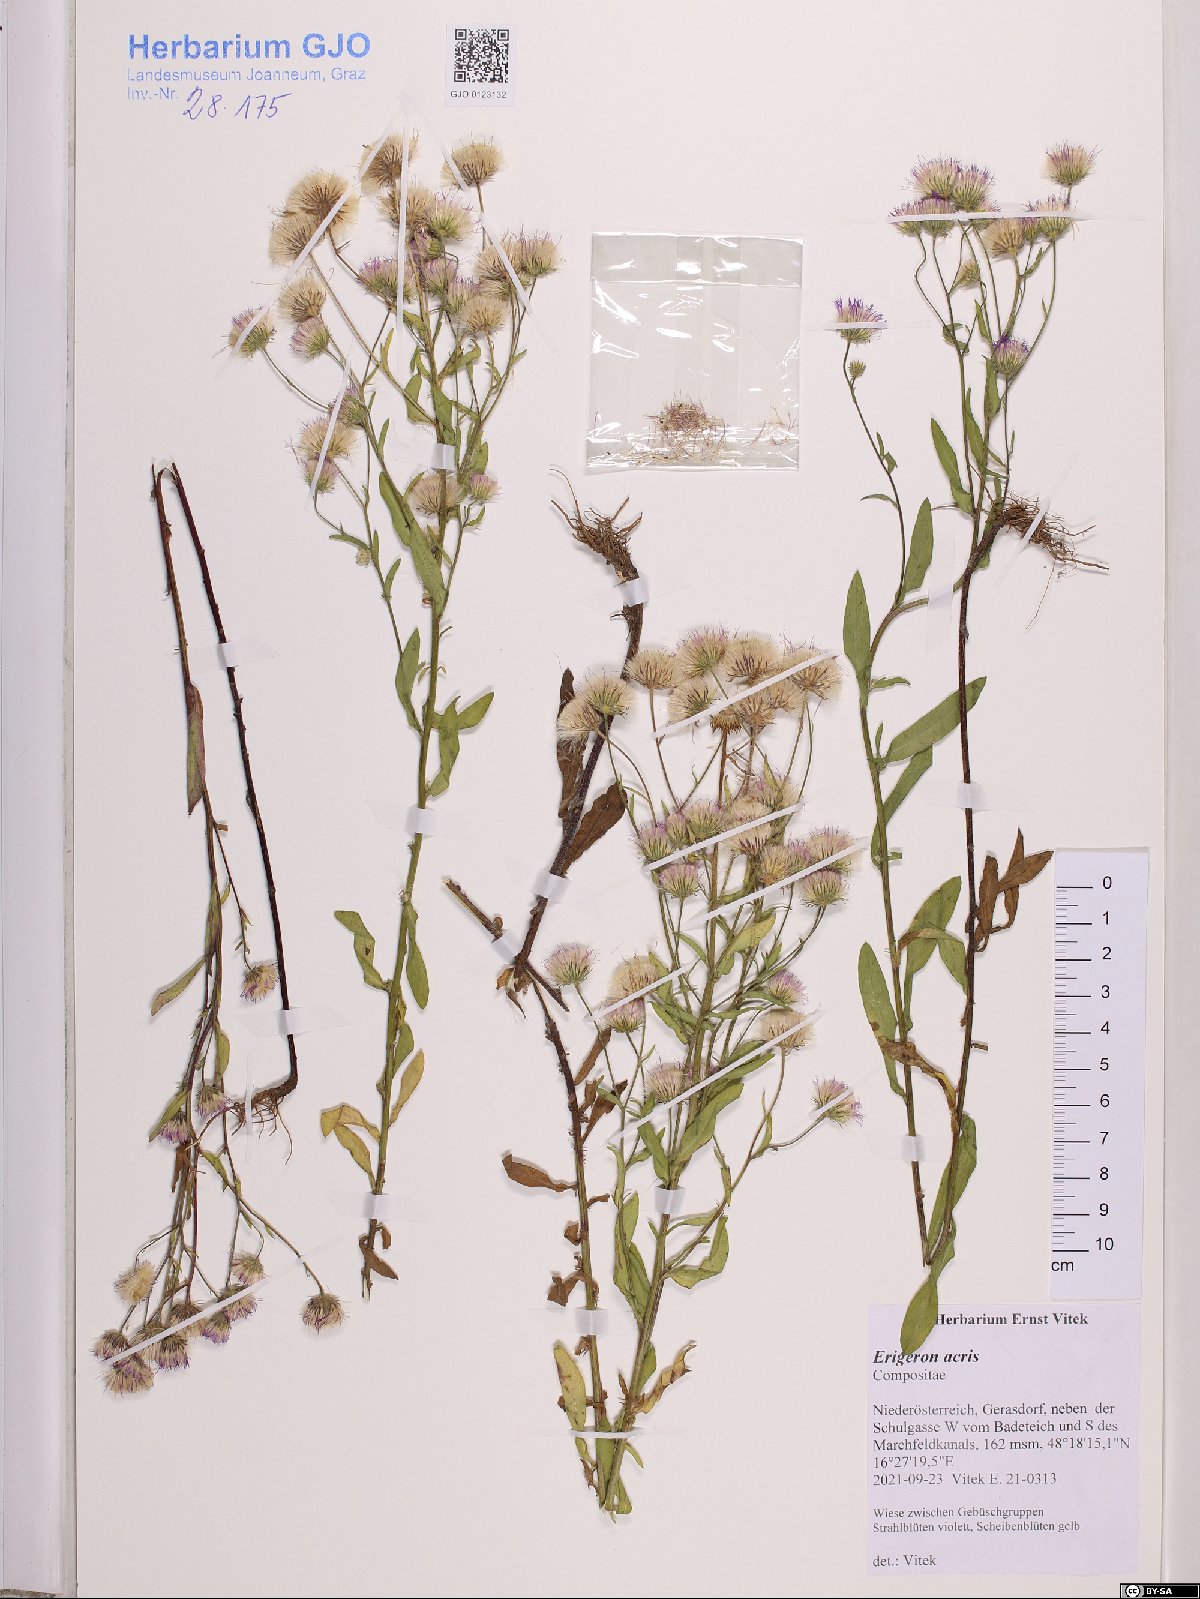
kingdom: Plantae
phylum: Tracheophyta
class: Magnoliopsida
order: Asterales
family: Asteraceae
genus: Erigeron
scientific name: Erigeron acris
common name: Blue fleabane
